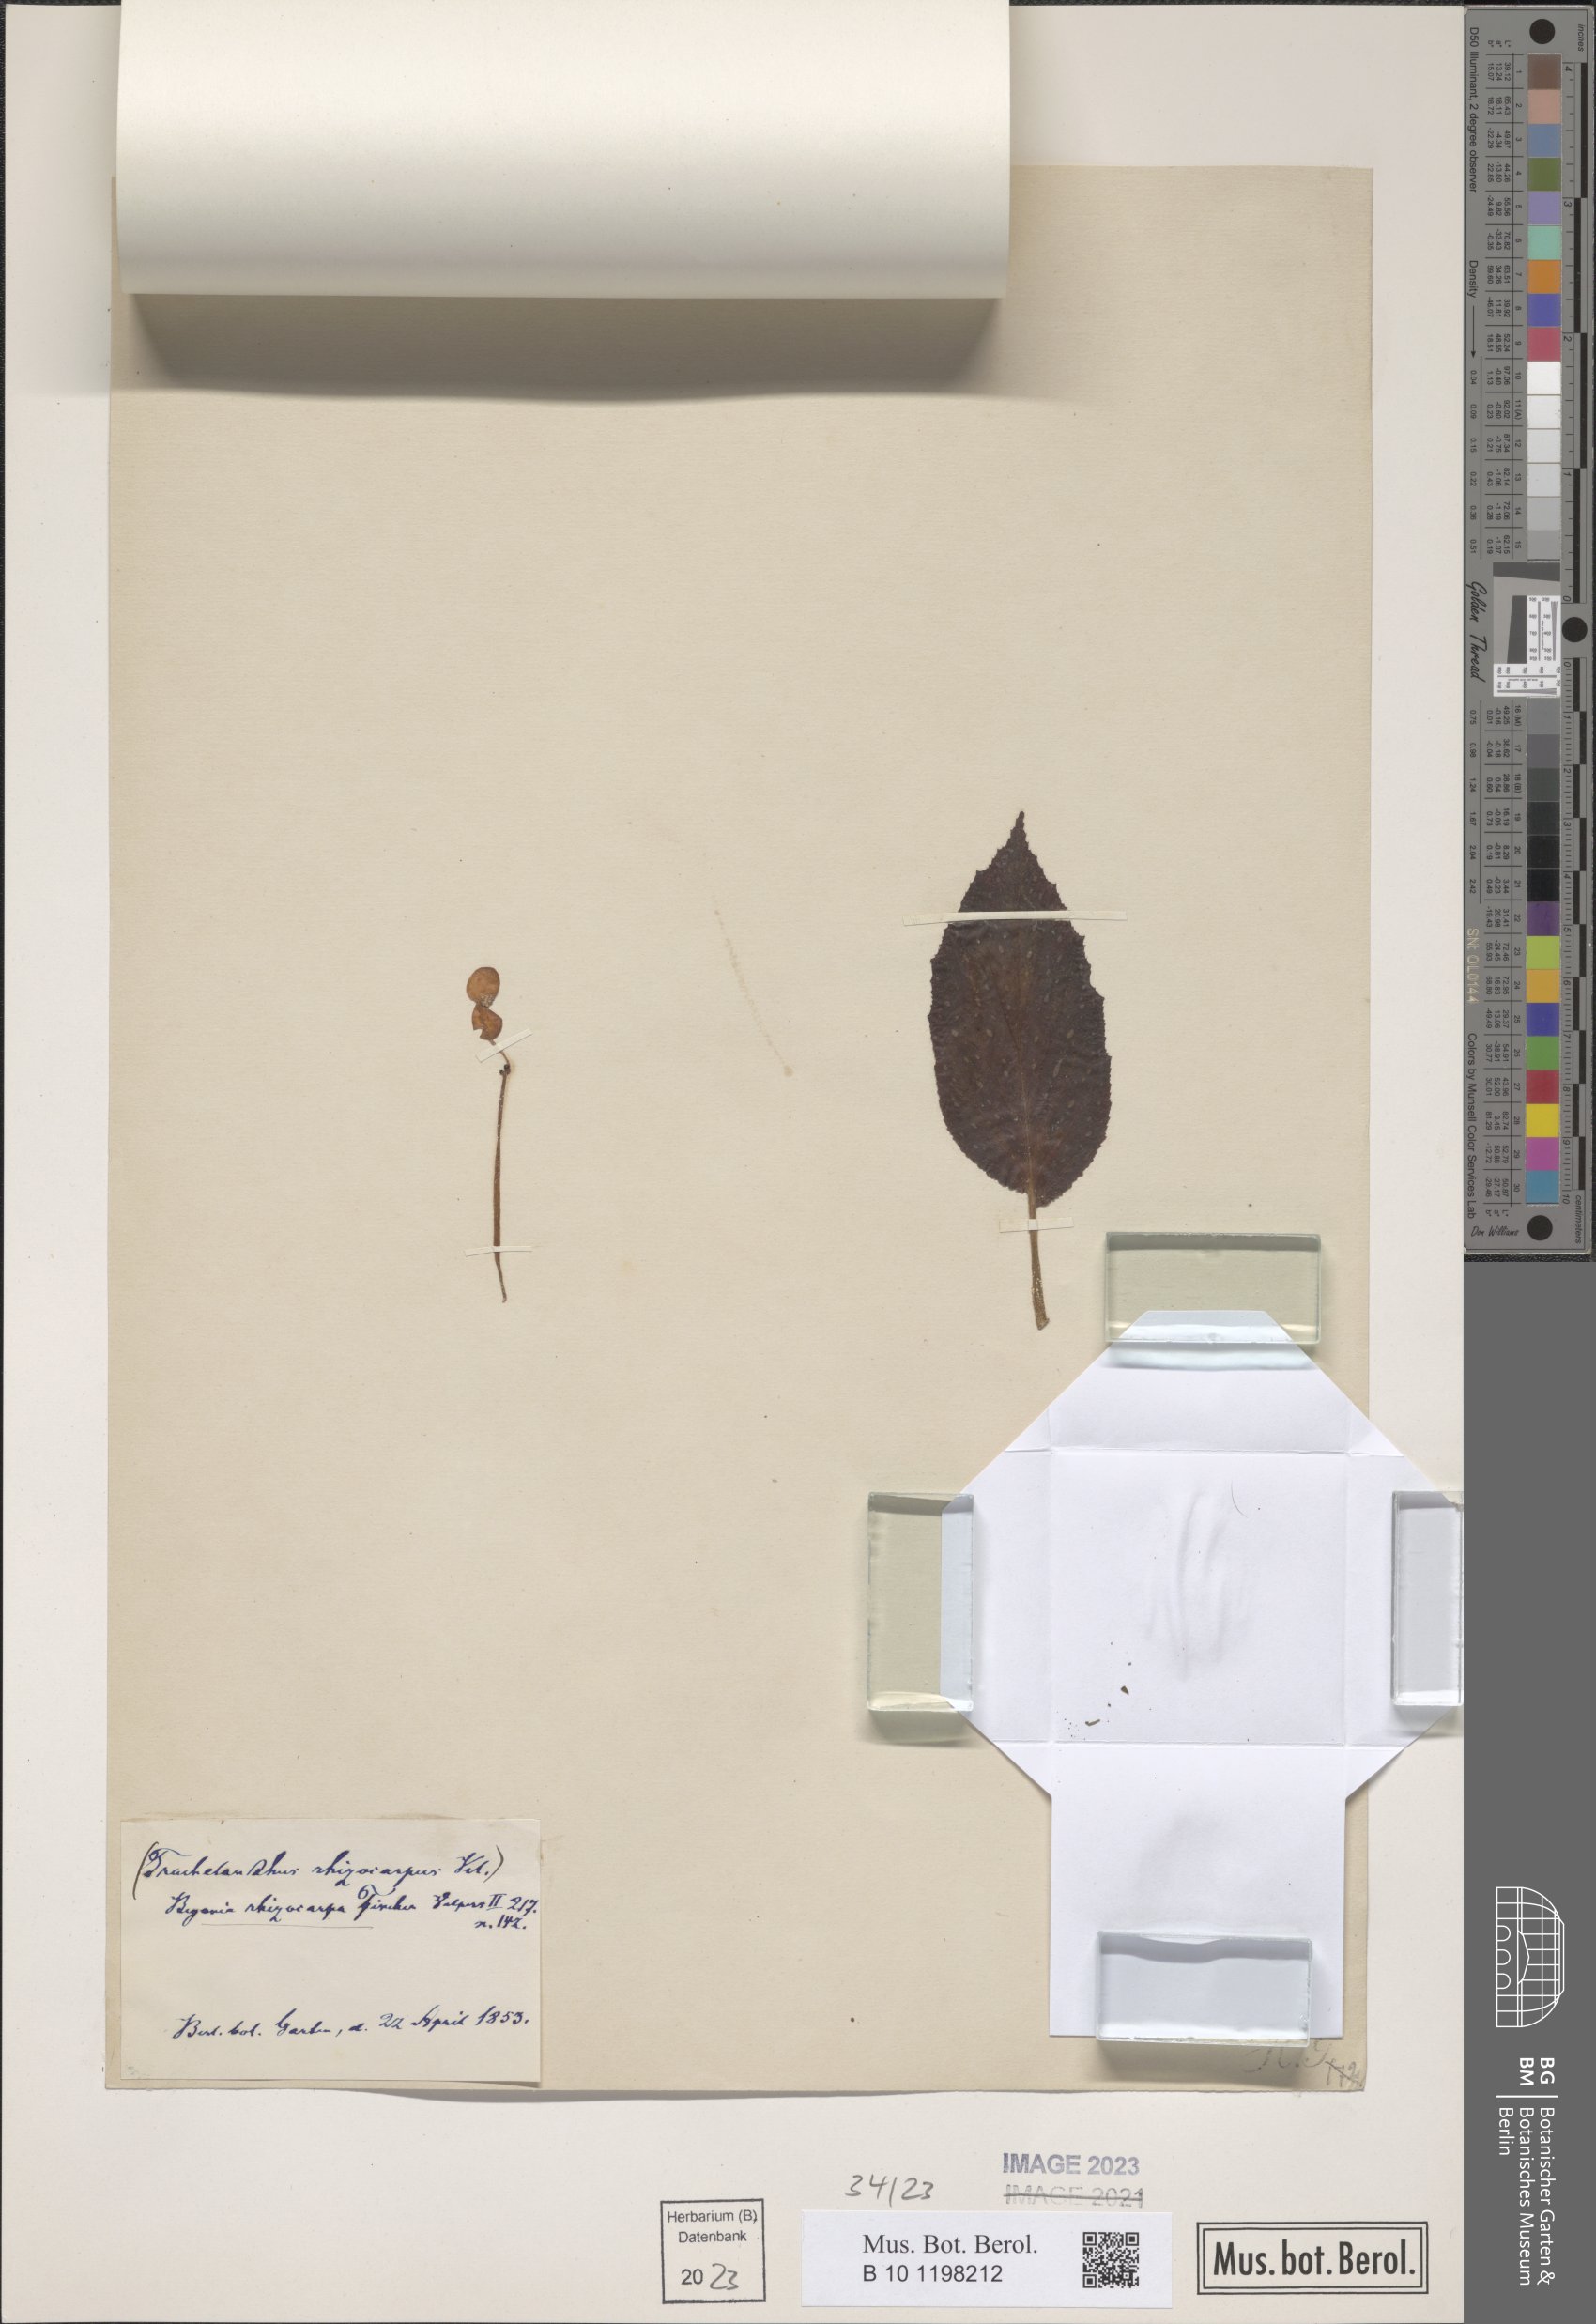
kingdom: Plantae
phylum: Tracheophyta
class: Magnoliopsida
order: Cucurbitales
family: Begoniaceae
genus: Begonia
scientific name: Begonia depauperata
